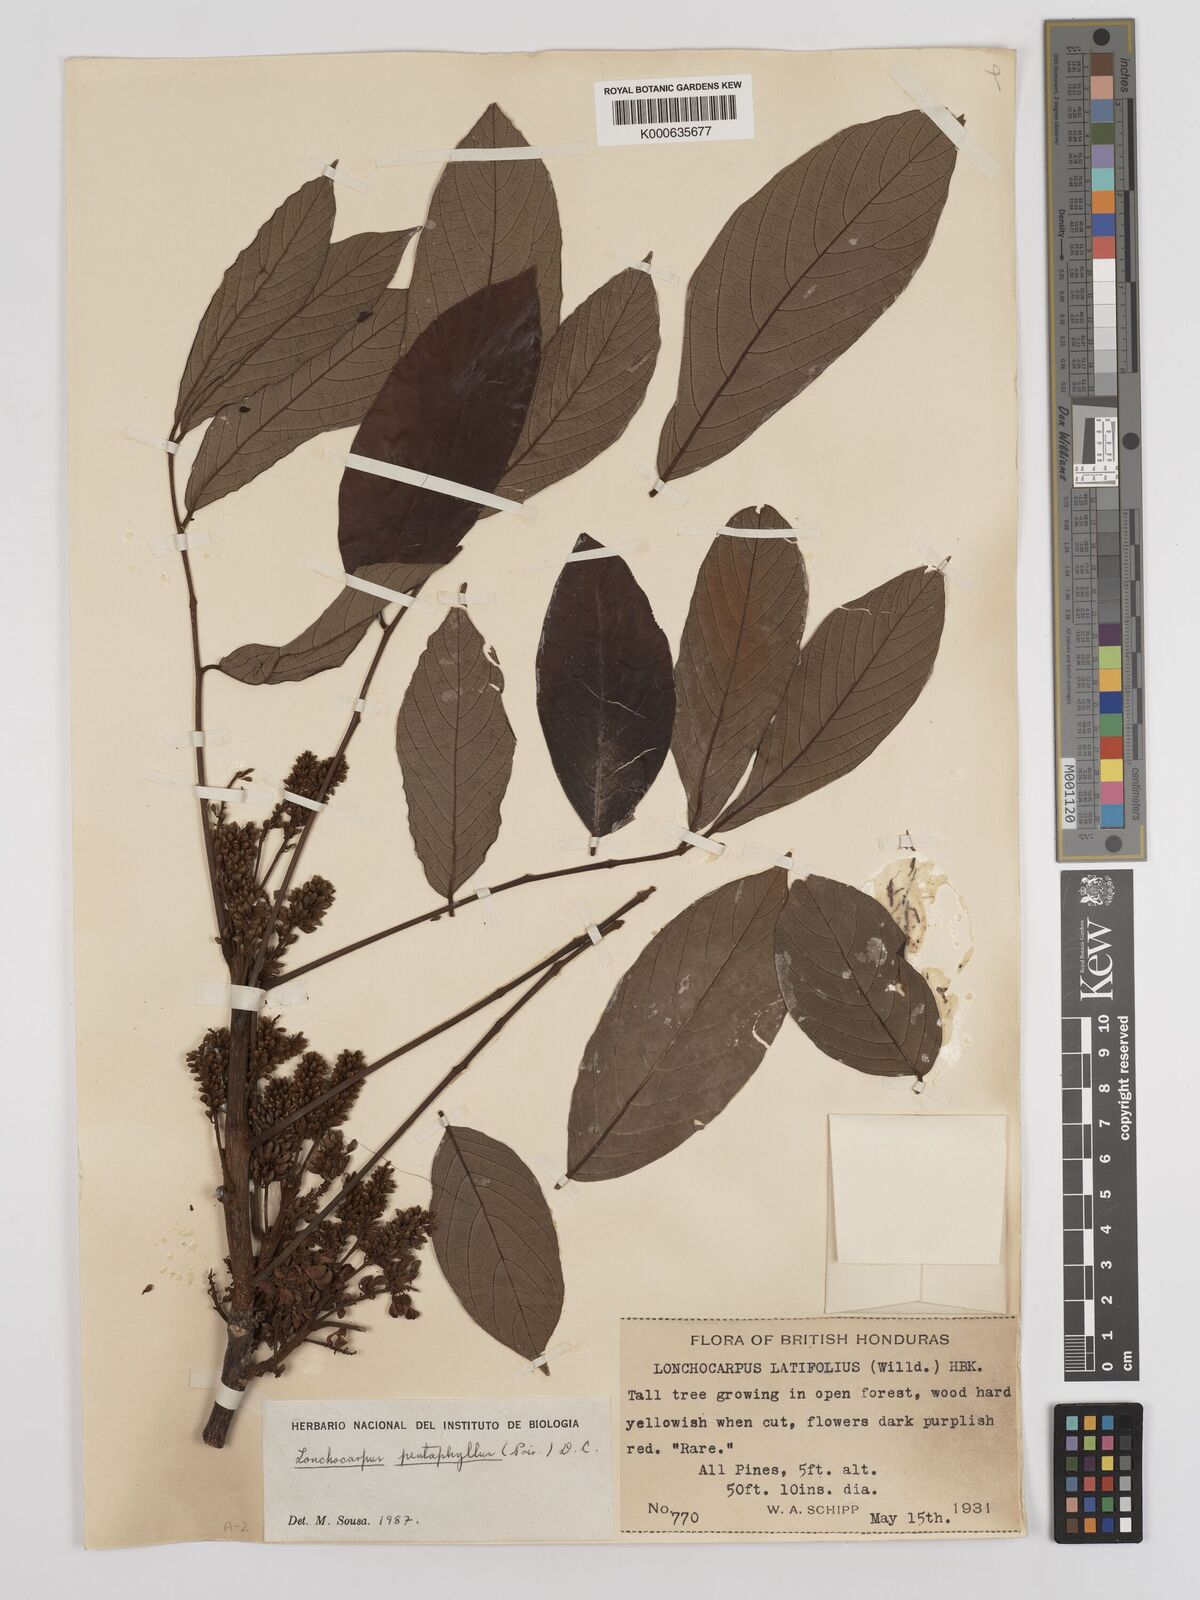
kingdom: Plantae
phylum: Tracheophyta
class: Magnoliopsida
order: Fabales
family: Fabaceae
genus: Lonchocarpus
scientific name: Lonchocarpus
